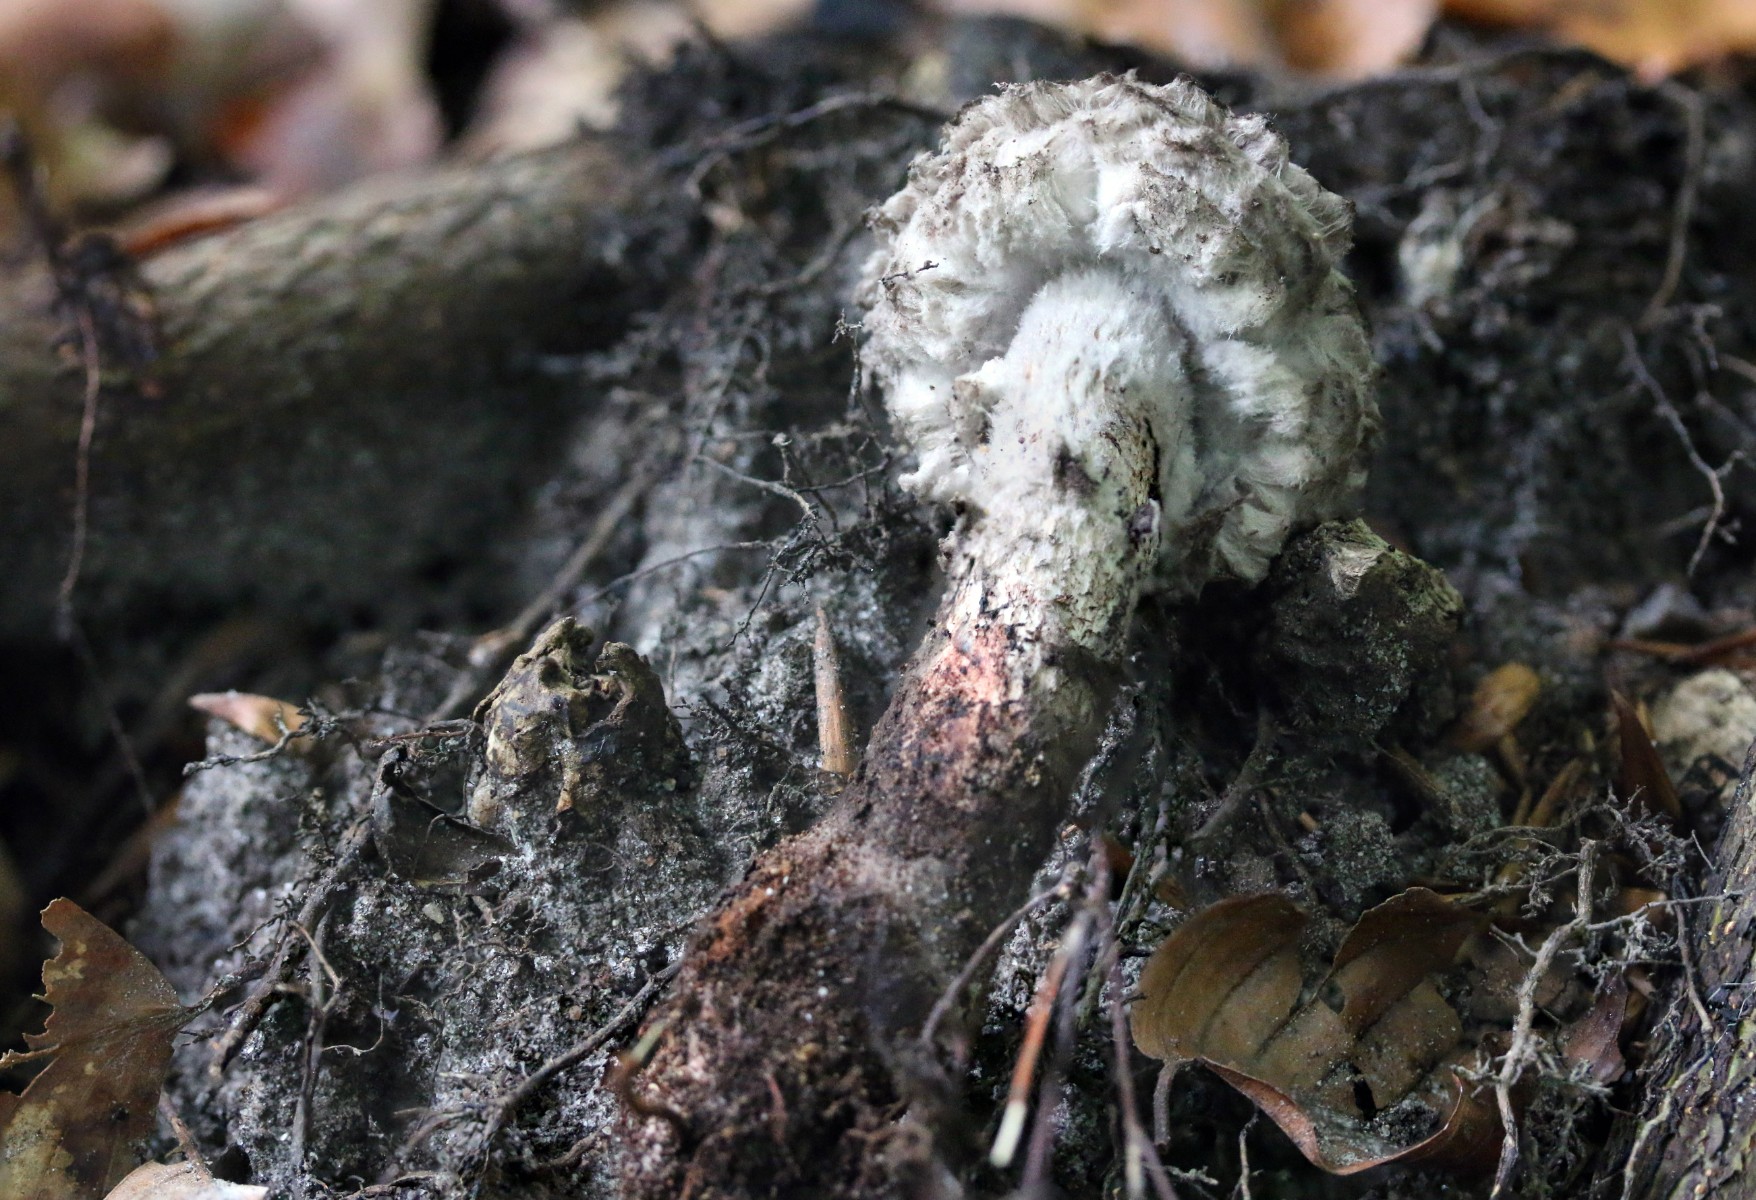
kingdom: Fungi
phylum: Basidiomycota
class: Agaricomycetes
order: Boletales
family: Boletaceae
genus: Strobilomyces
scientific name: Strobilomyces strobilaceus
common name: koglerørhat
